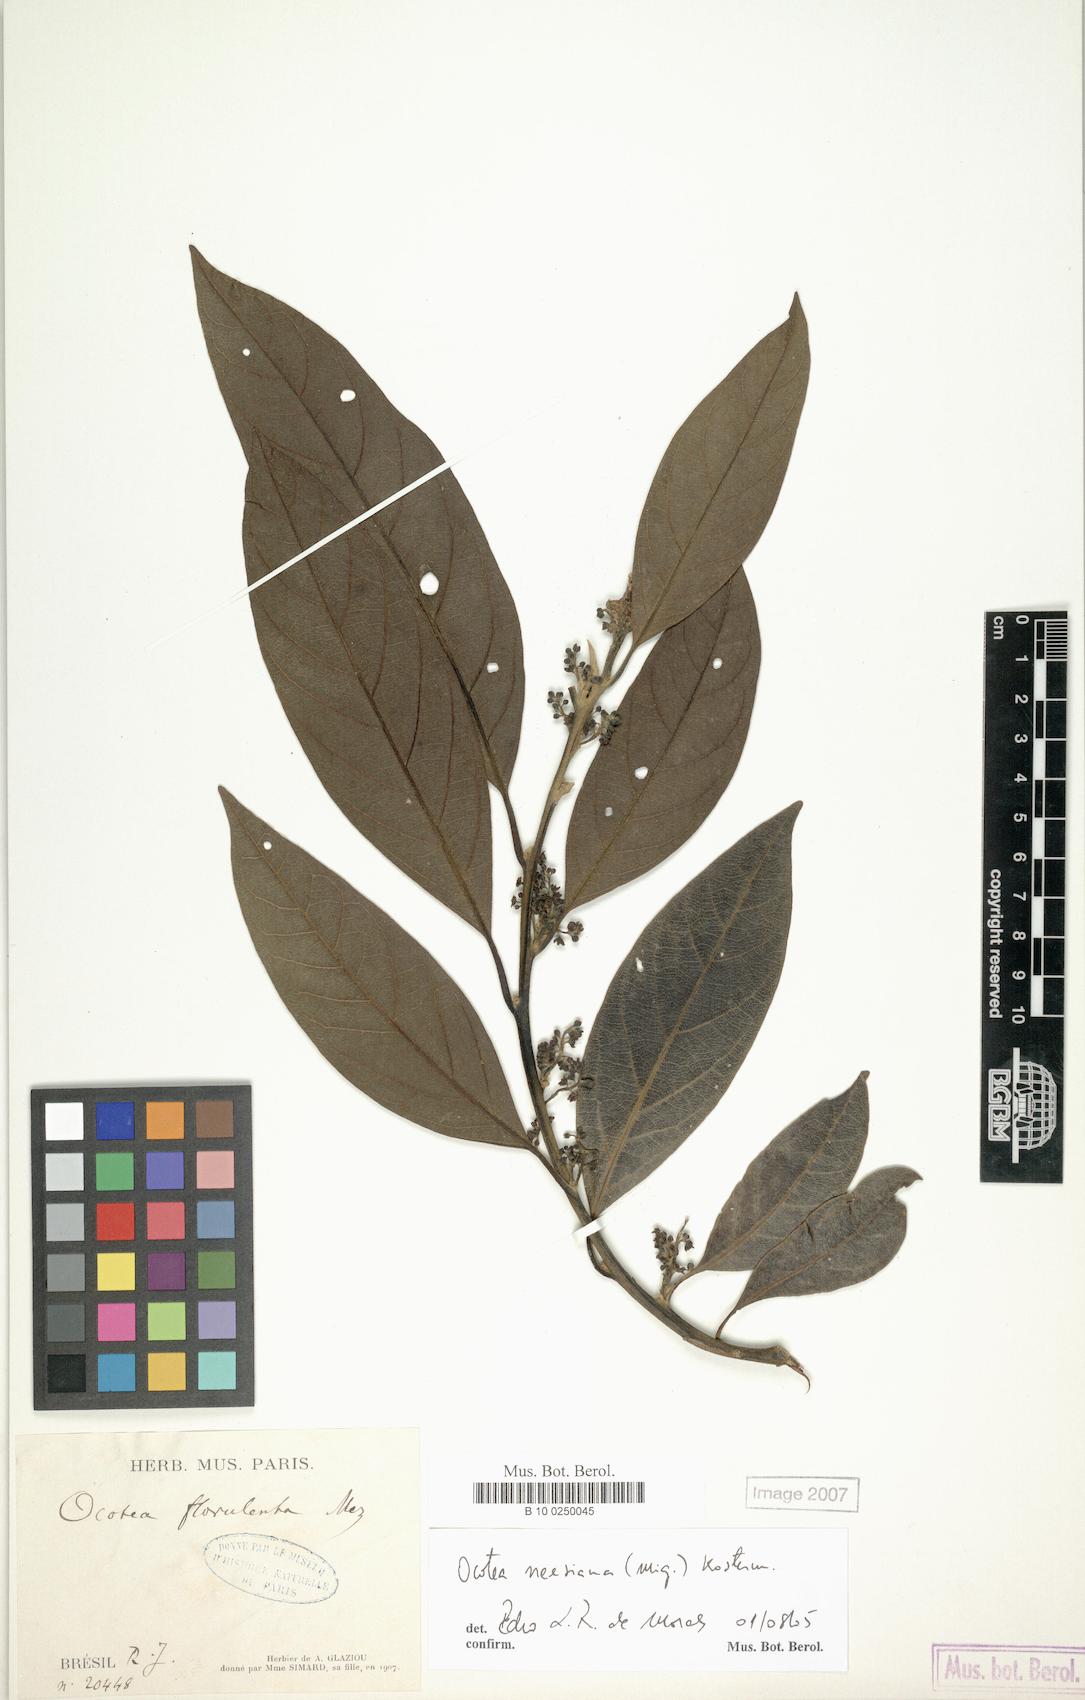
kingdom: Plantae
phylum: Tracheophyta
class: Magnoliopsida
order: Laurales
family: Lauraceae
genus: Ocotea
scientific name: Ocotea neesiana
